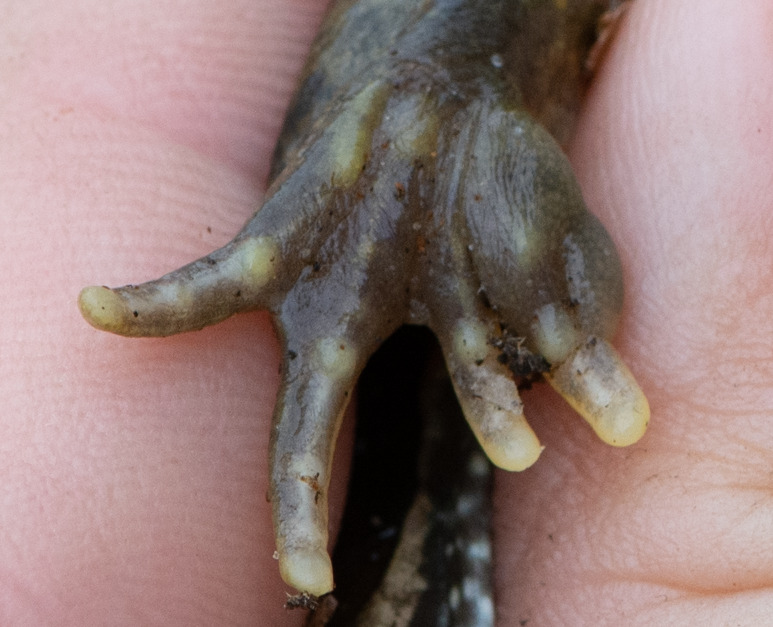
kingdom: Animalia
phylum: Chordata
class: Amphibia
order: Anura
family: Ranidae
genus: Rana
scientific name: Rana temporaria
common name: Butsnudet frø
